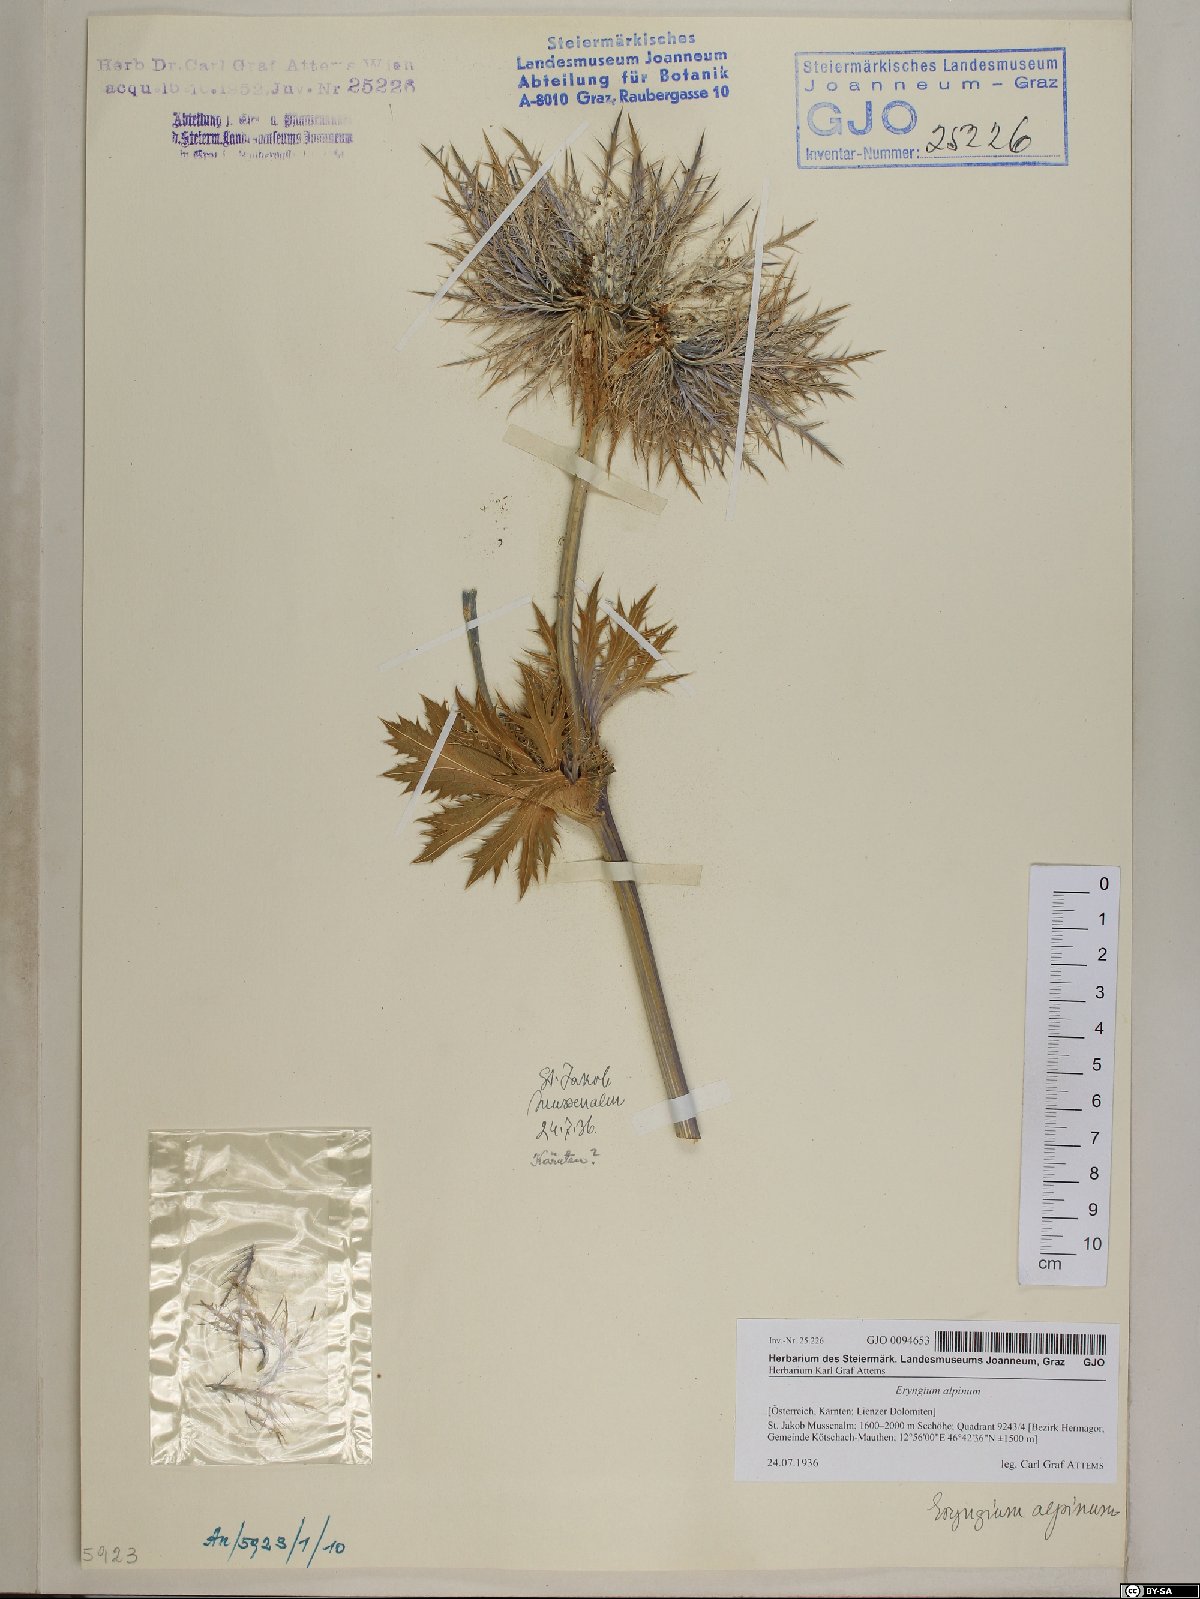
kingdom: Plantae
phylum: Tracheophyta
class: Magnoliopsida
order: Apiales
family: Apiaceae
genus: Eryngium
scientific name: Eryngium alpinum
